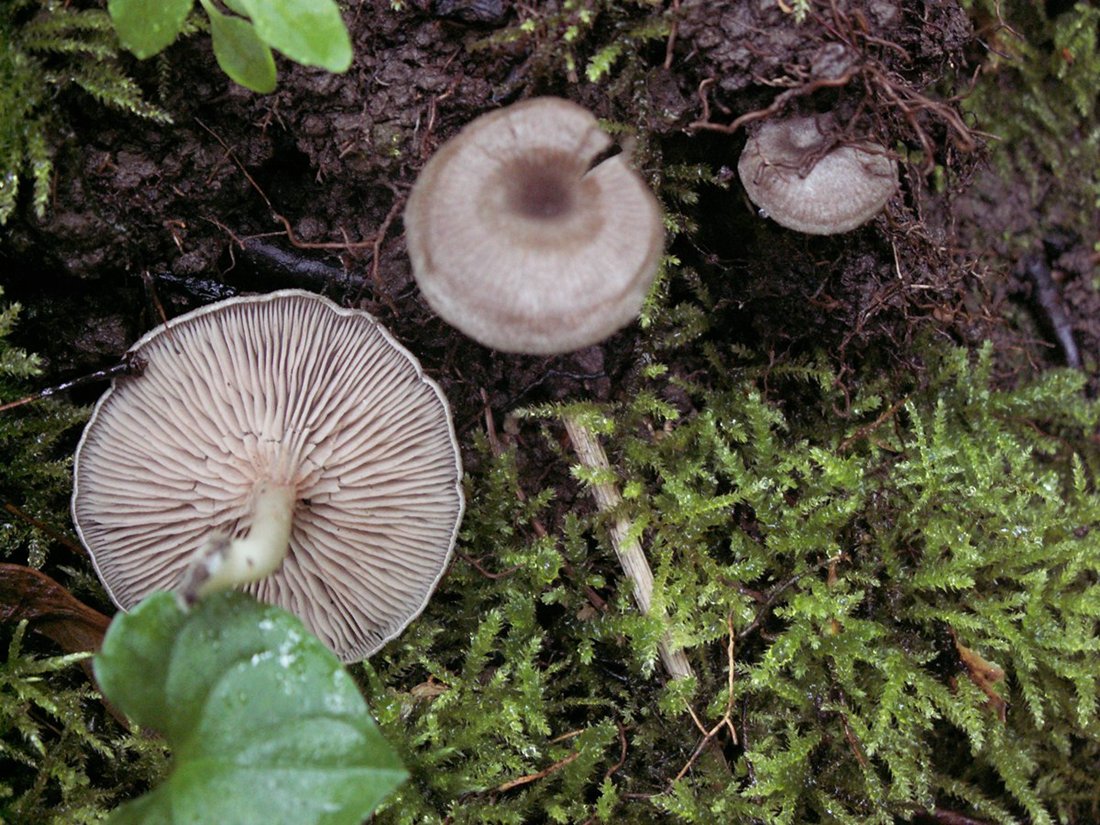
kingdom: Fungi
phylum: Basidiomycota
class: Agaricomycetes
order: Agaricales
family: Entolomataceae
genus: Entoloma
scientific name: Entoloma undatum
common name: bæltet rødblad
